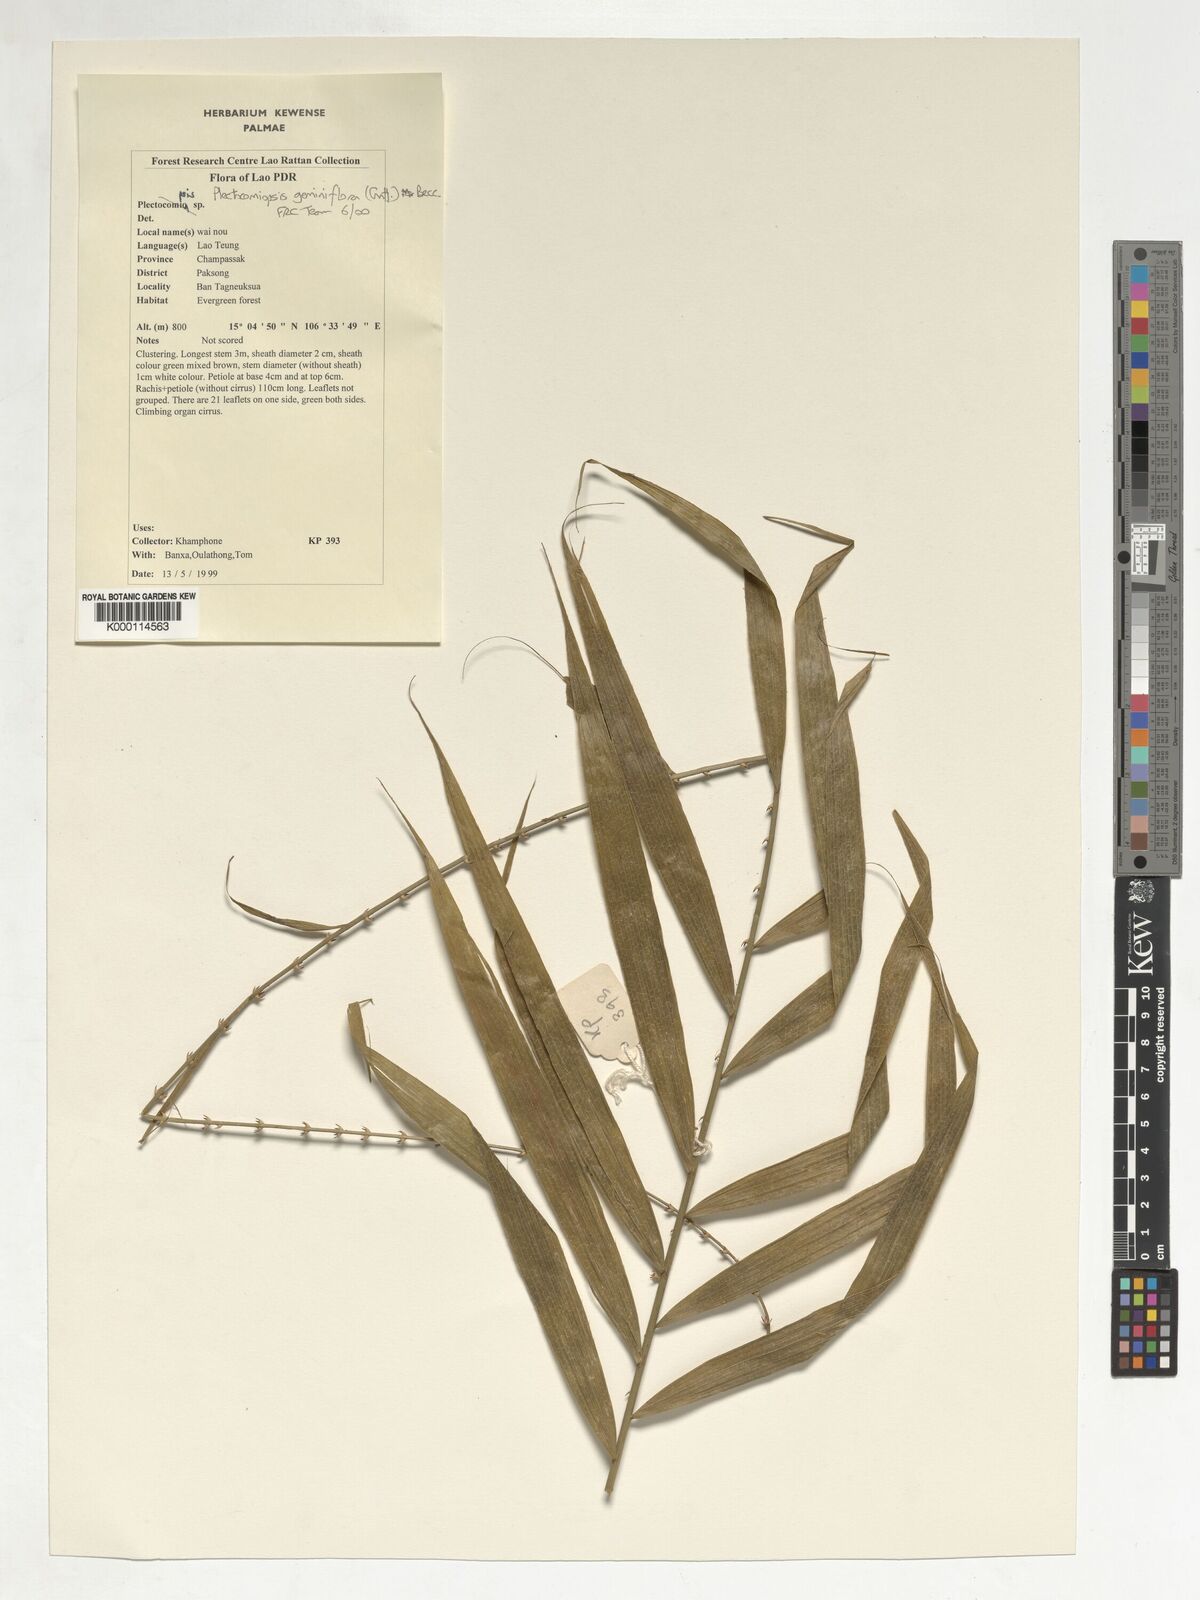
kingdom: Plantae
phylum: Tracheophyta
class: Liliopsida
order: Arecales
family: Arecaceae
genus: Plectocomiopsis
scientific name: Plectocomiopsis geminiflora
